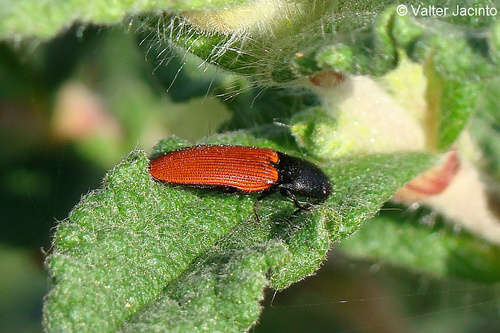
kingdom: Animalia
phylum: Arthropoda
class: Insecta
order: Coleoptera
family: Elateridae
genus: Ampedus
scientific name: Ampedus pooti
